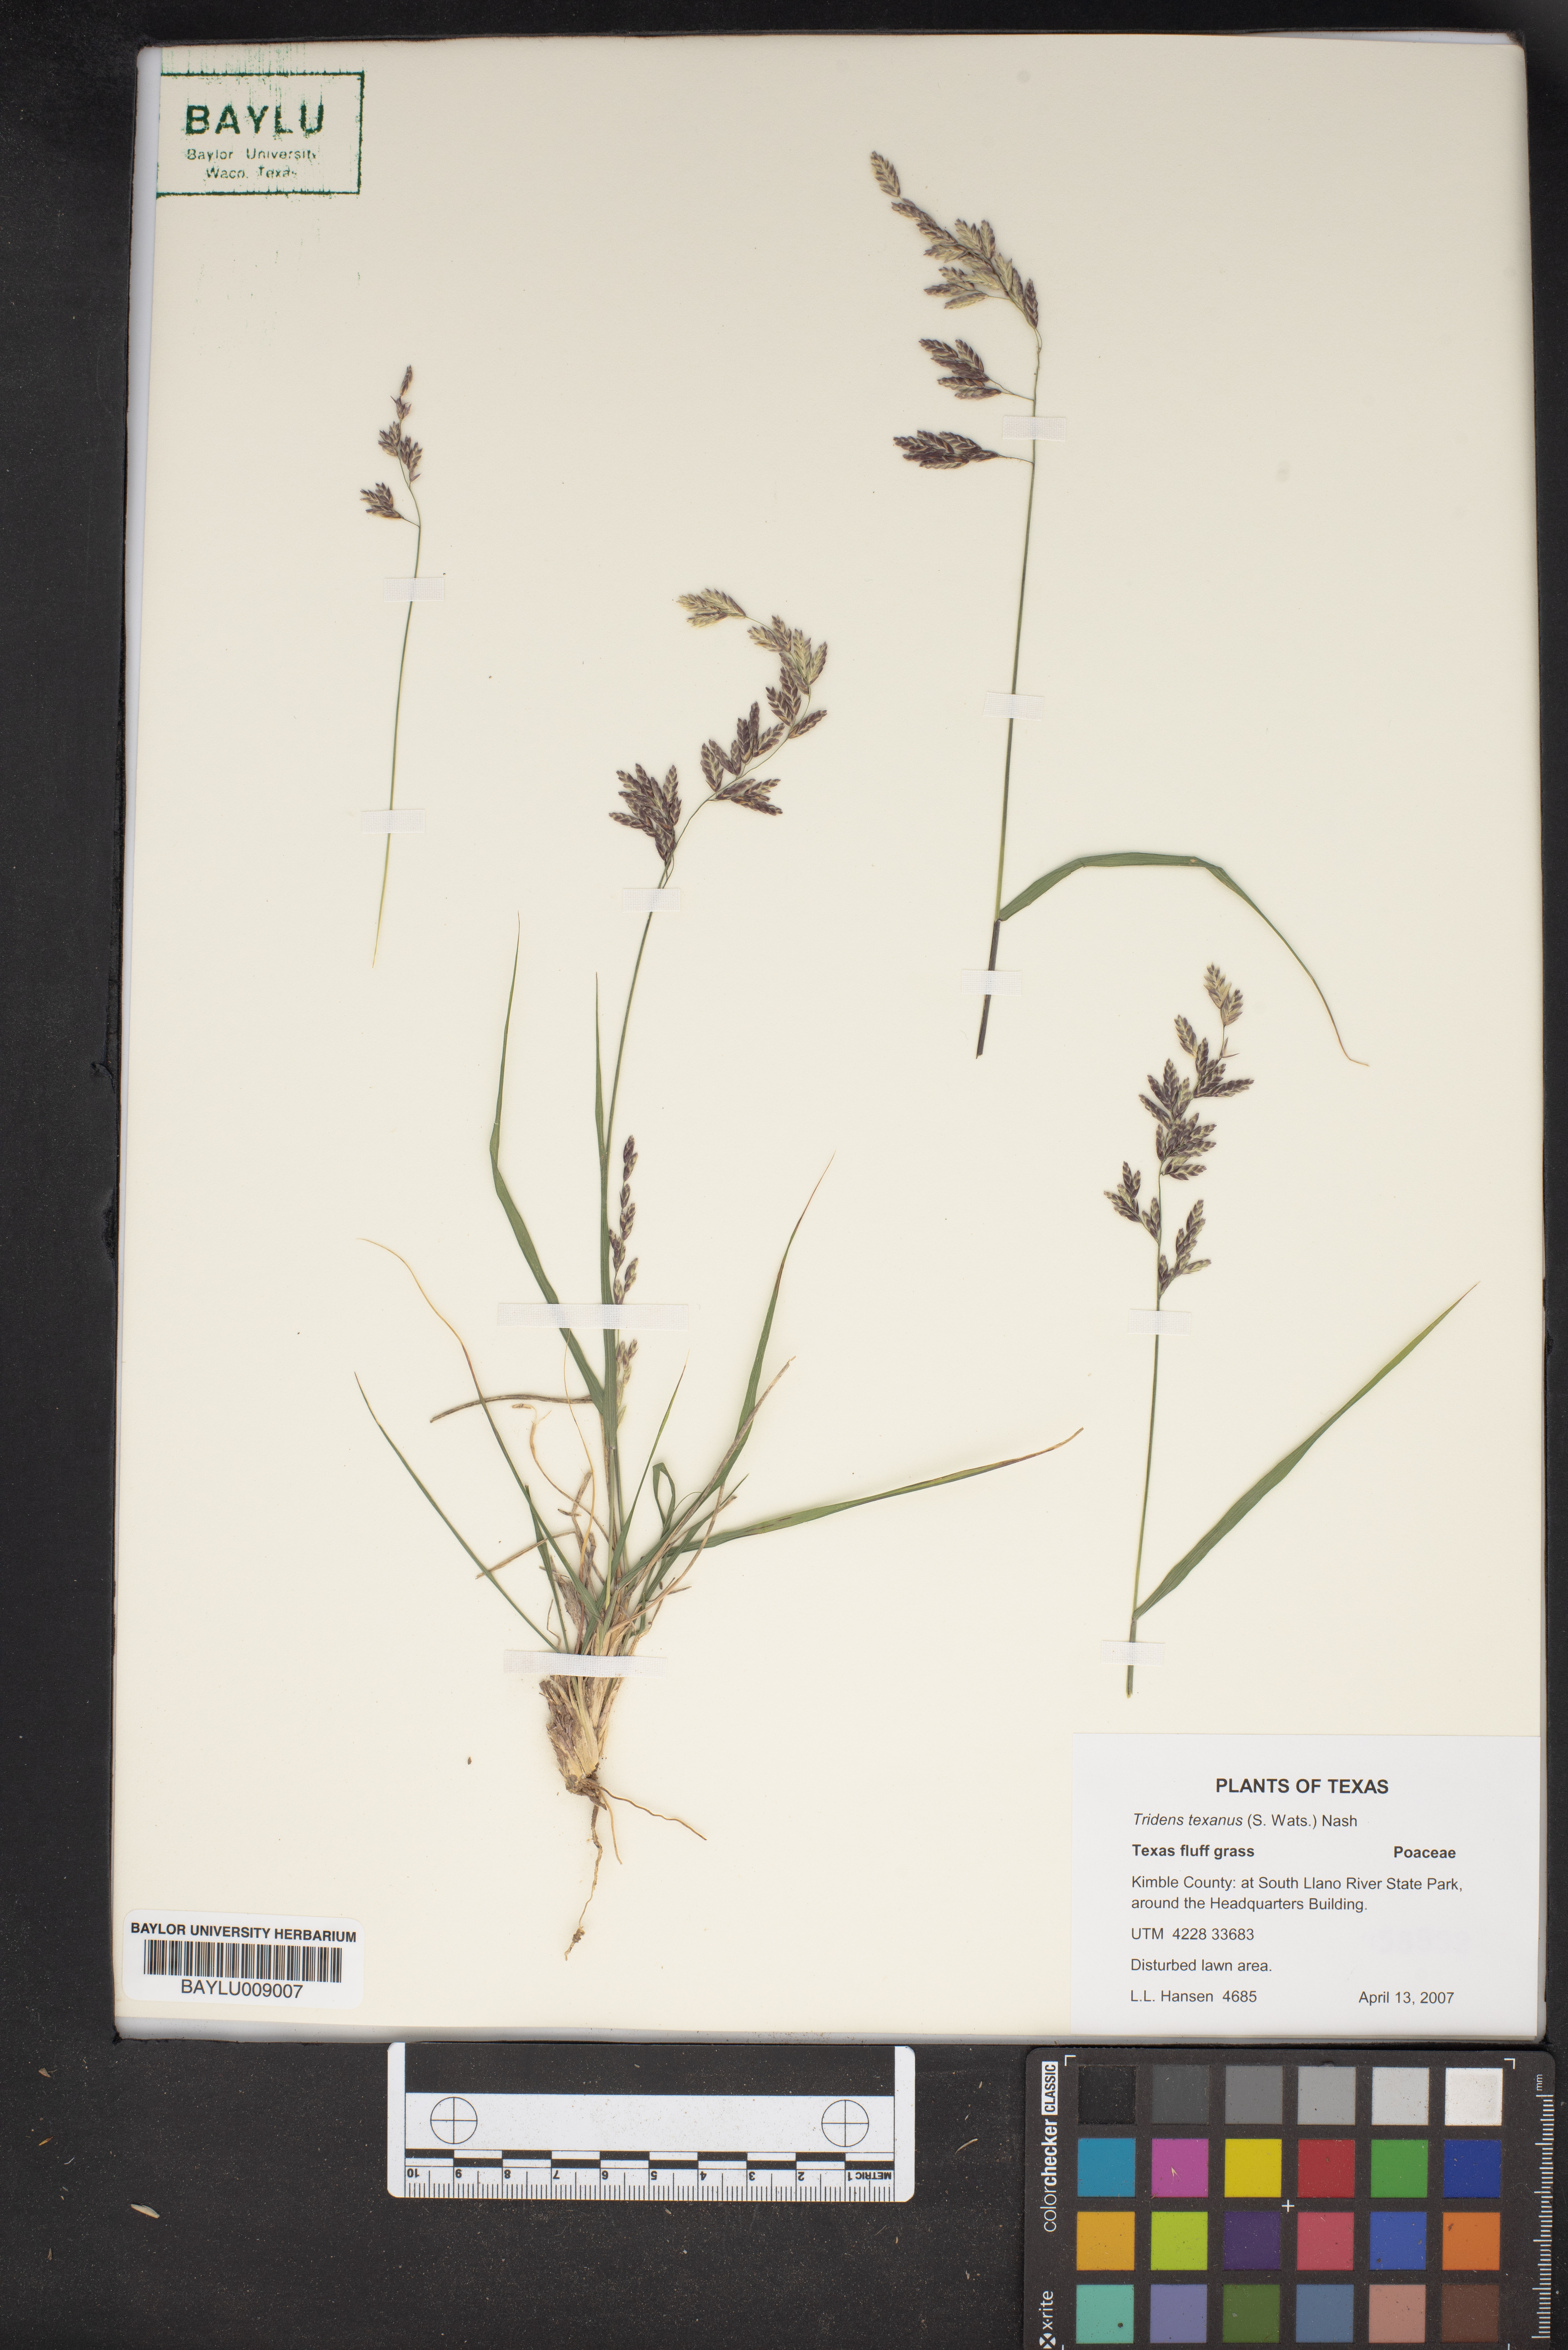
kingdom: Plantae
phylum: Tracheophyta
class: Liliopsida
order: Poales
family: Poaceae
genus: Tridens
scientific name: Tridens texanus
